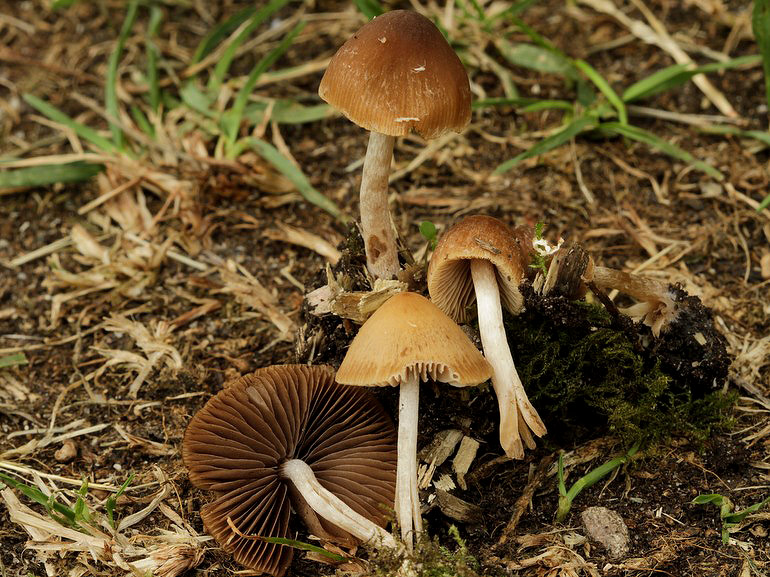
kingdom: Fungi
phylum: Basidiomycota
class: Agaricomycetes
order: Agaricales
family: Psathyrellaceae
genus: Psathyrella
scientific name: Psathyrella obtusata
